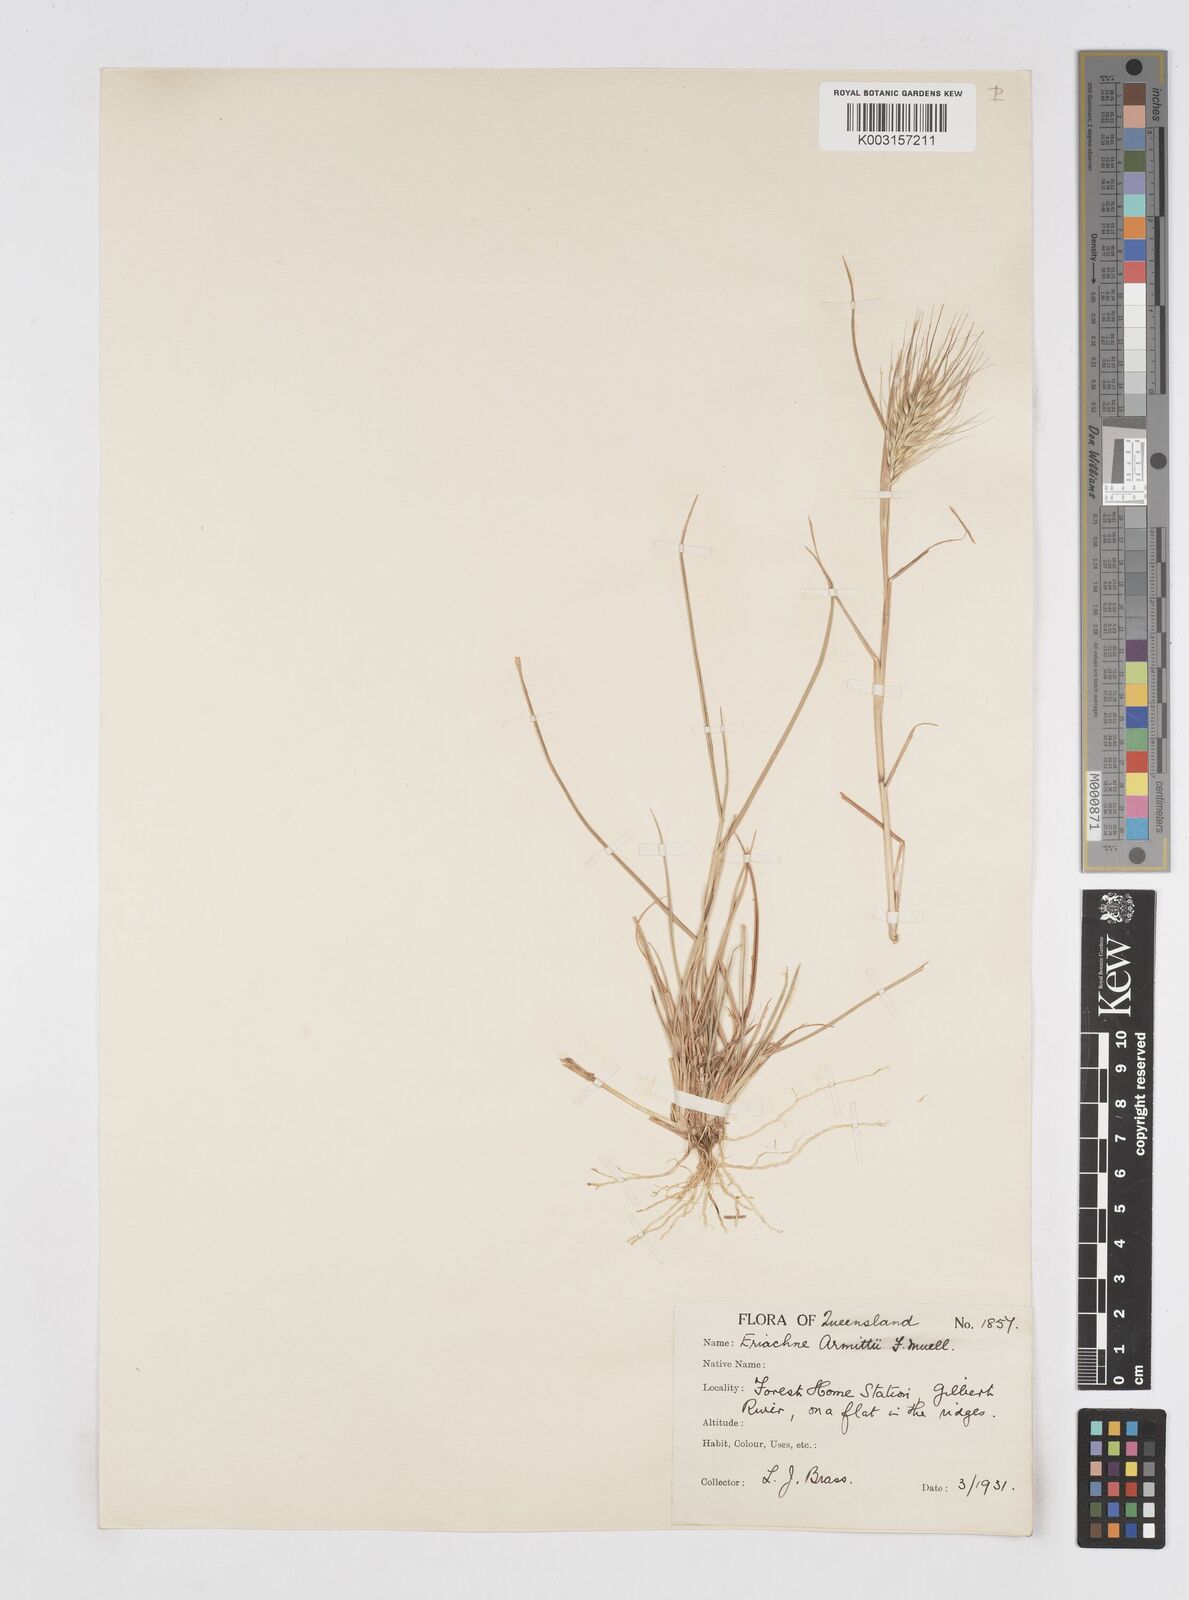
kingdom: Plantae
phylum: Tracheophyta
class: Liliopsida
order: Poales
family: Poaceae
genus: Eriachne
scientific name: Eriachne armitii
